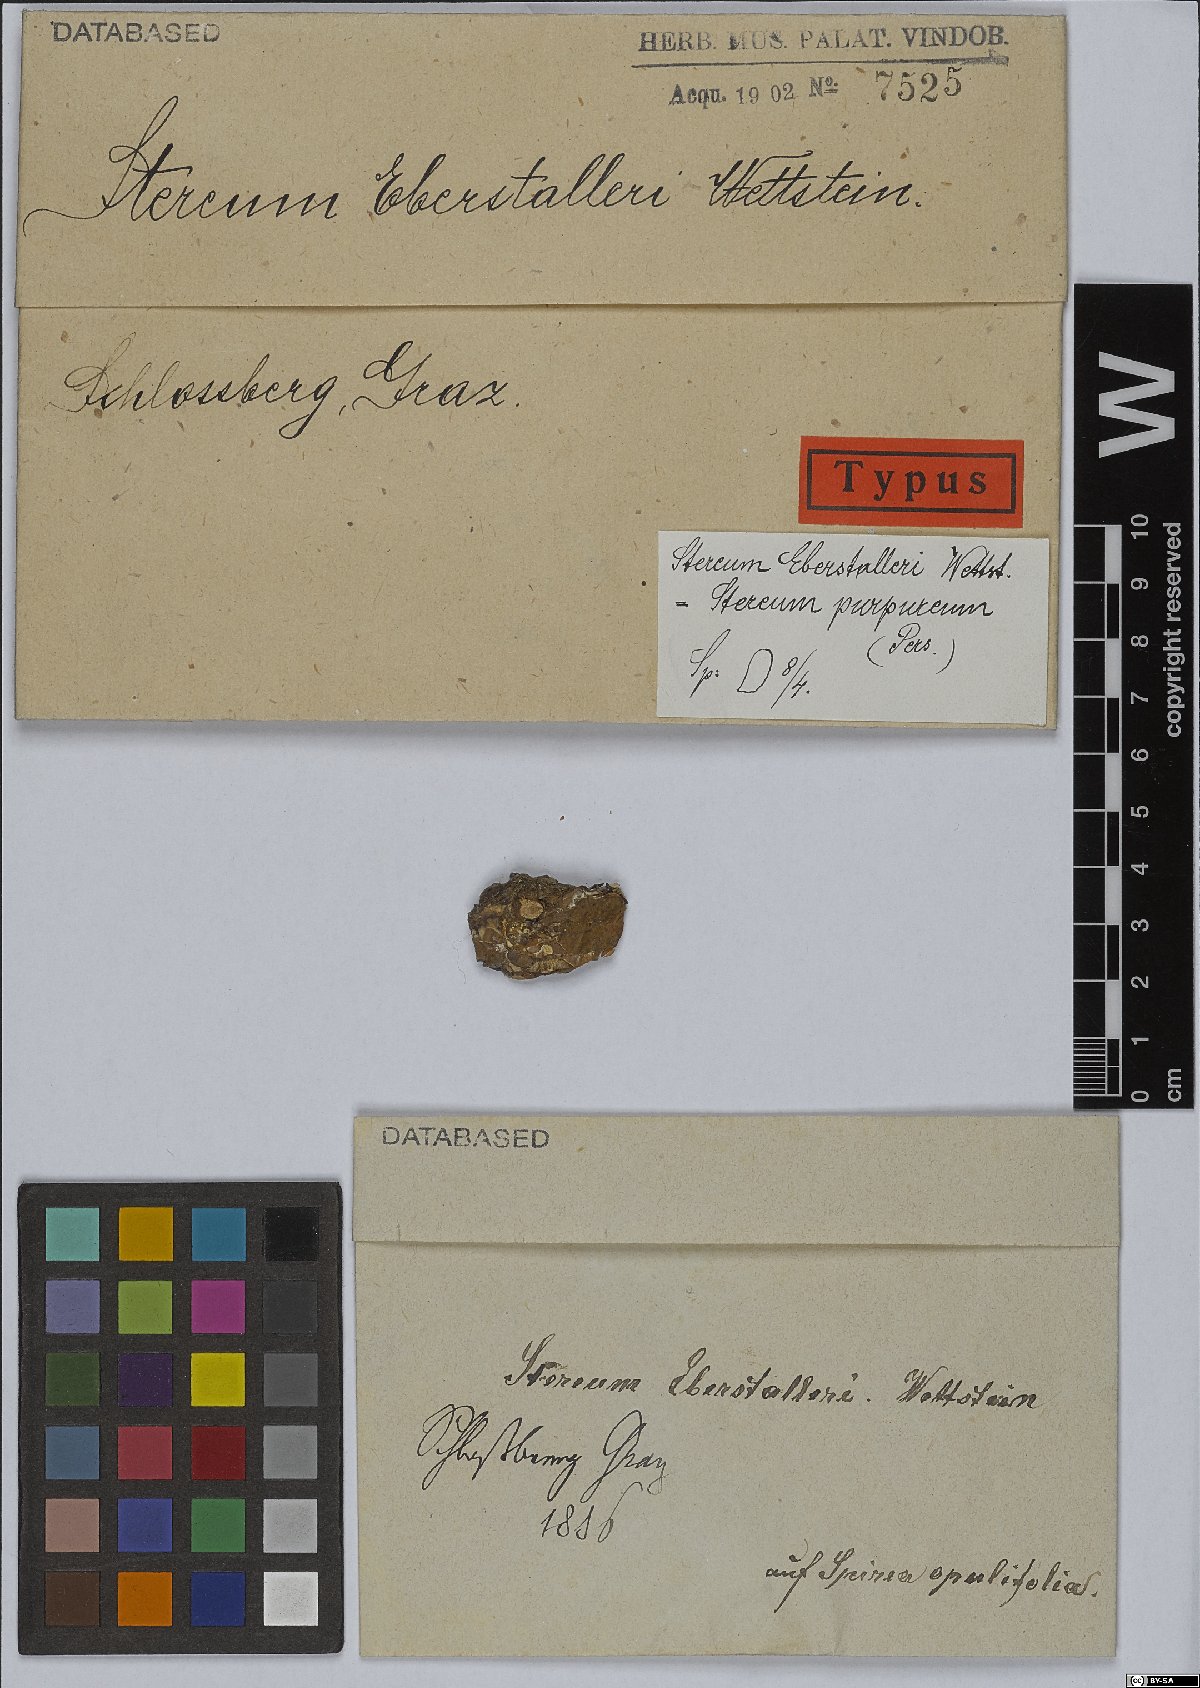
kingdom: Fungi
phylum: Basidiomycota
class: Agaricomycetes
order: Russulales
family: Stereaceae
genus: Stereum
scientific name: Stereum
